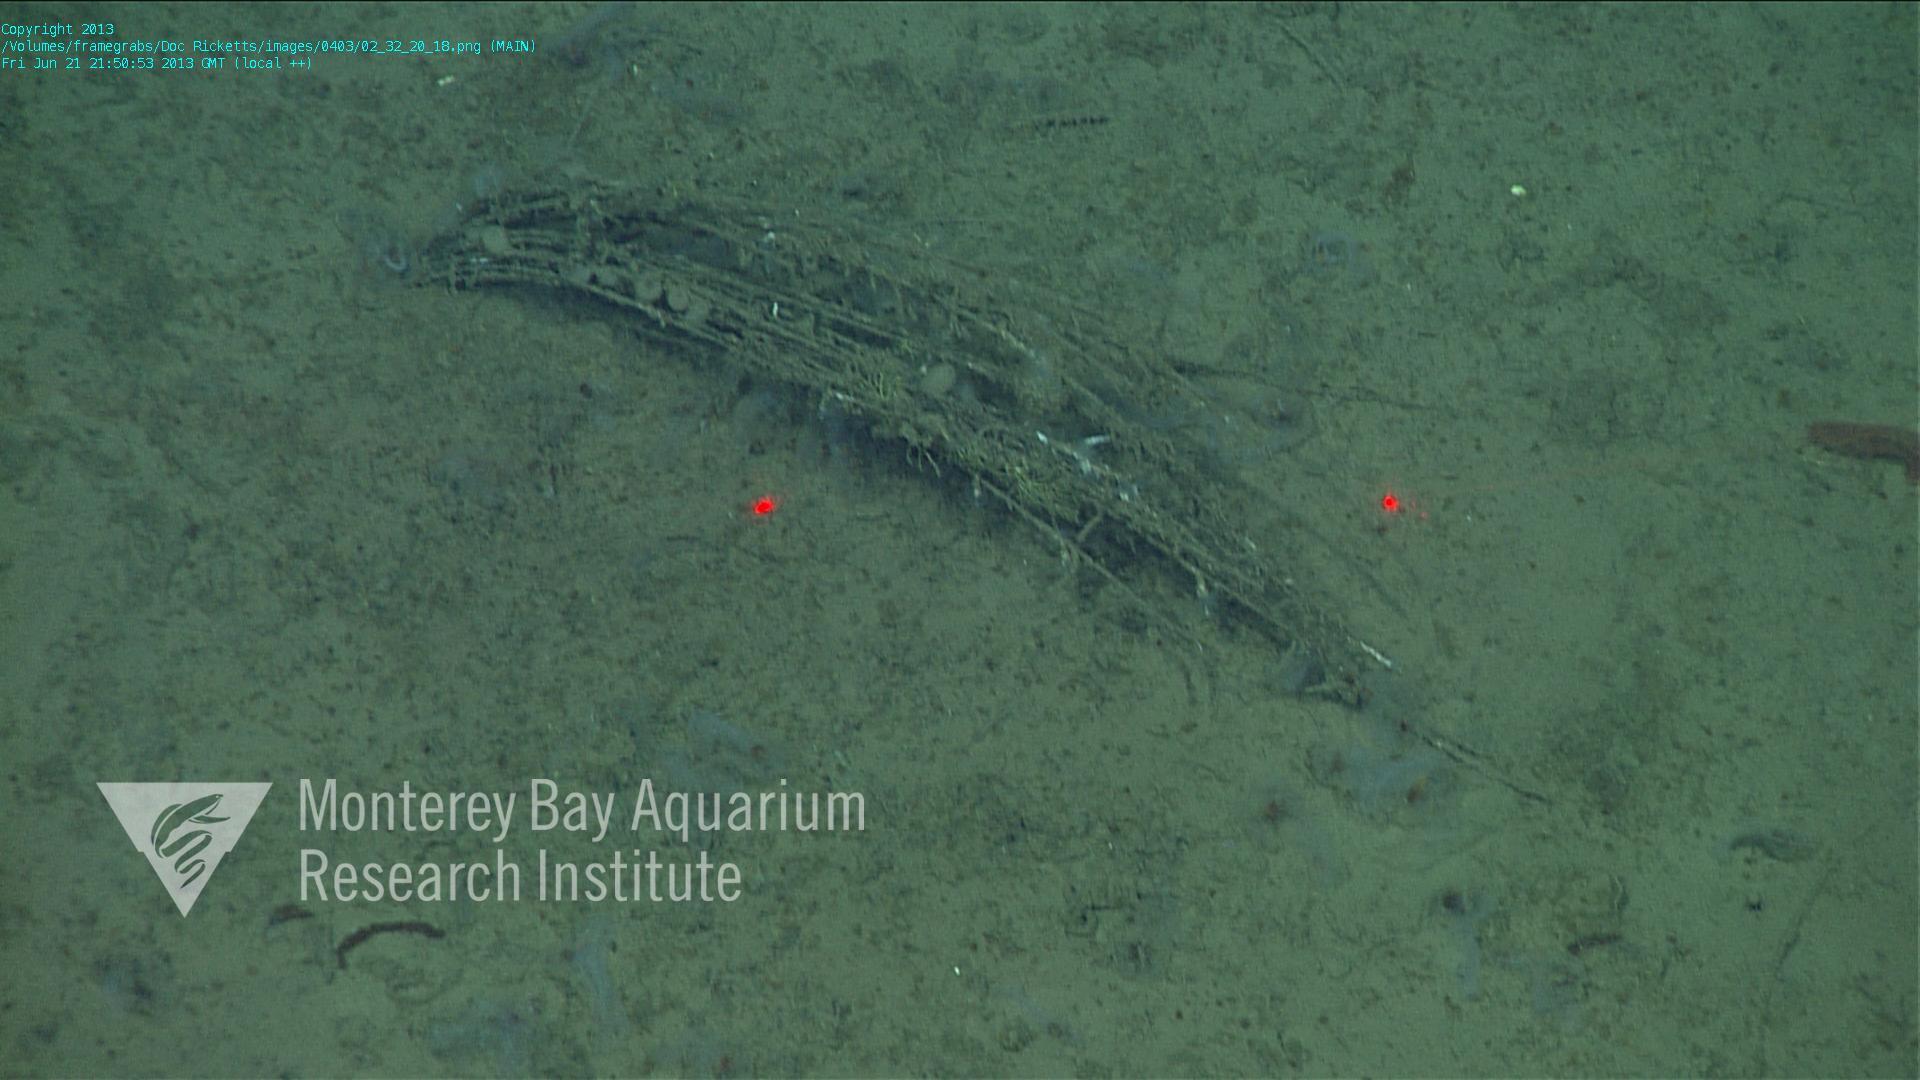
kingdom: Animalia
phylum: Porifera
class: Hexactinellida
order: Lyssacinosida
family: Rossellidae
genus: Bathydorus
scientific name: Bathydorus spinosus
